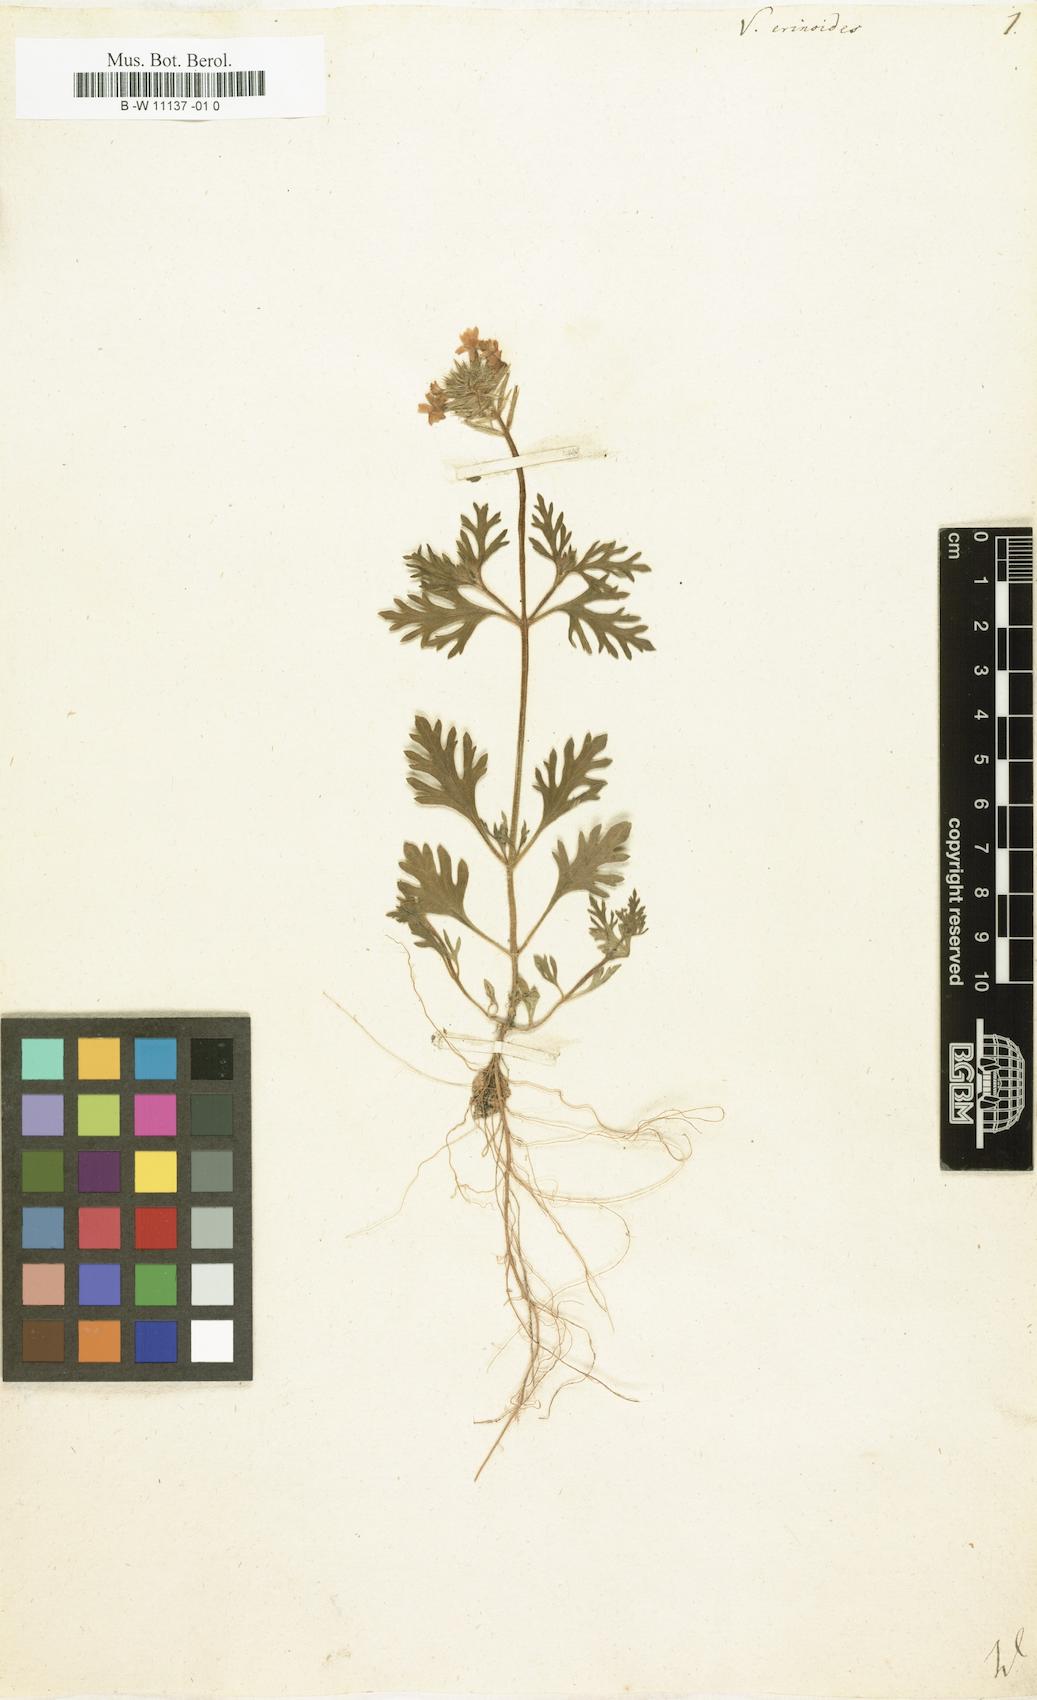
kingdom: Plantae
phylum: Tracheophyta
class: Magnoliopsida
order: Lamiales
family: Verbenaceae
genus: Verbena
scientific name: Verbena laciniata
